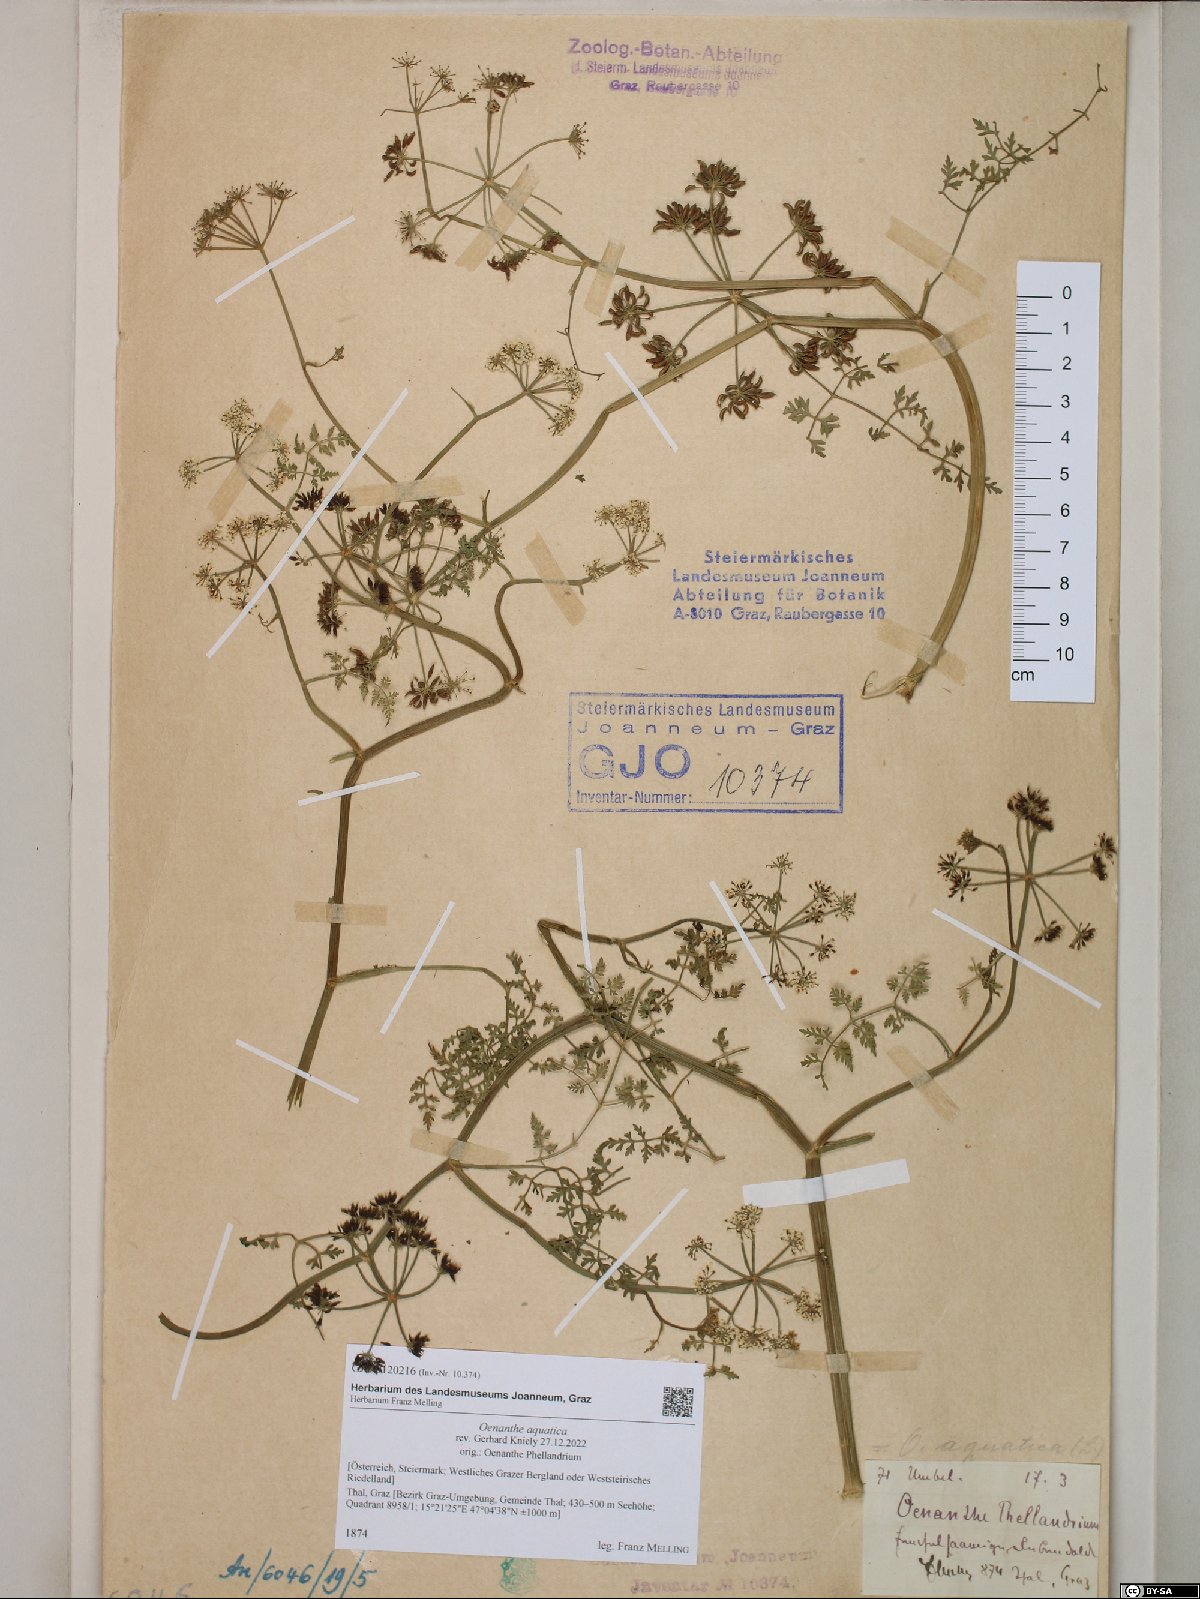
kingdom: Plantae
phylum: Tracheophyta
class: Magnoliopsida
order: Apiales
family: Apiaceae
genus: Oenanthe
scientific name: Oenanthe aquatica
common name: Fine-leaved water-dropwort
